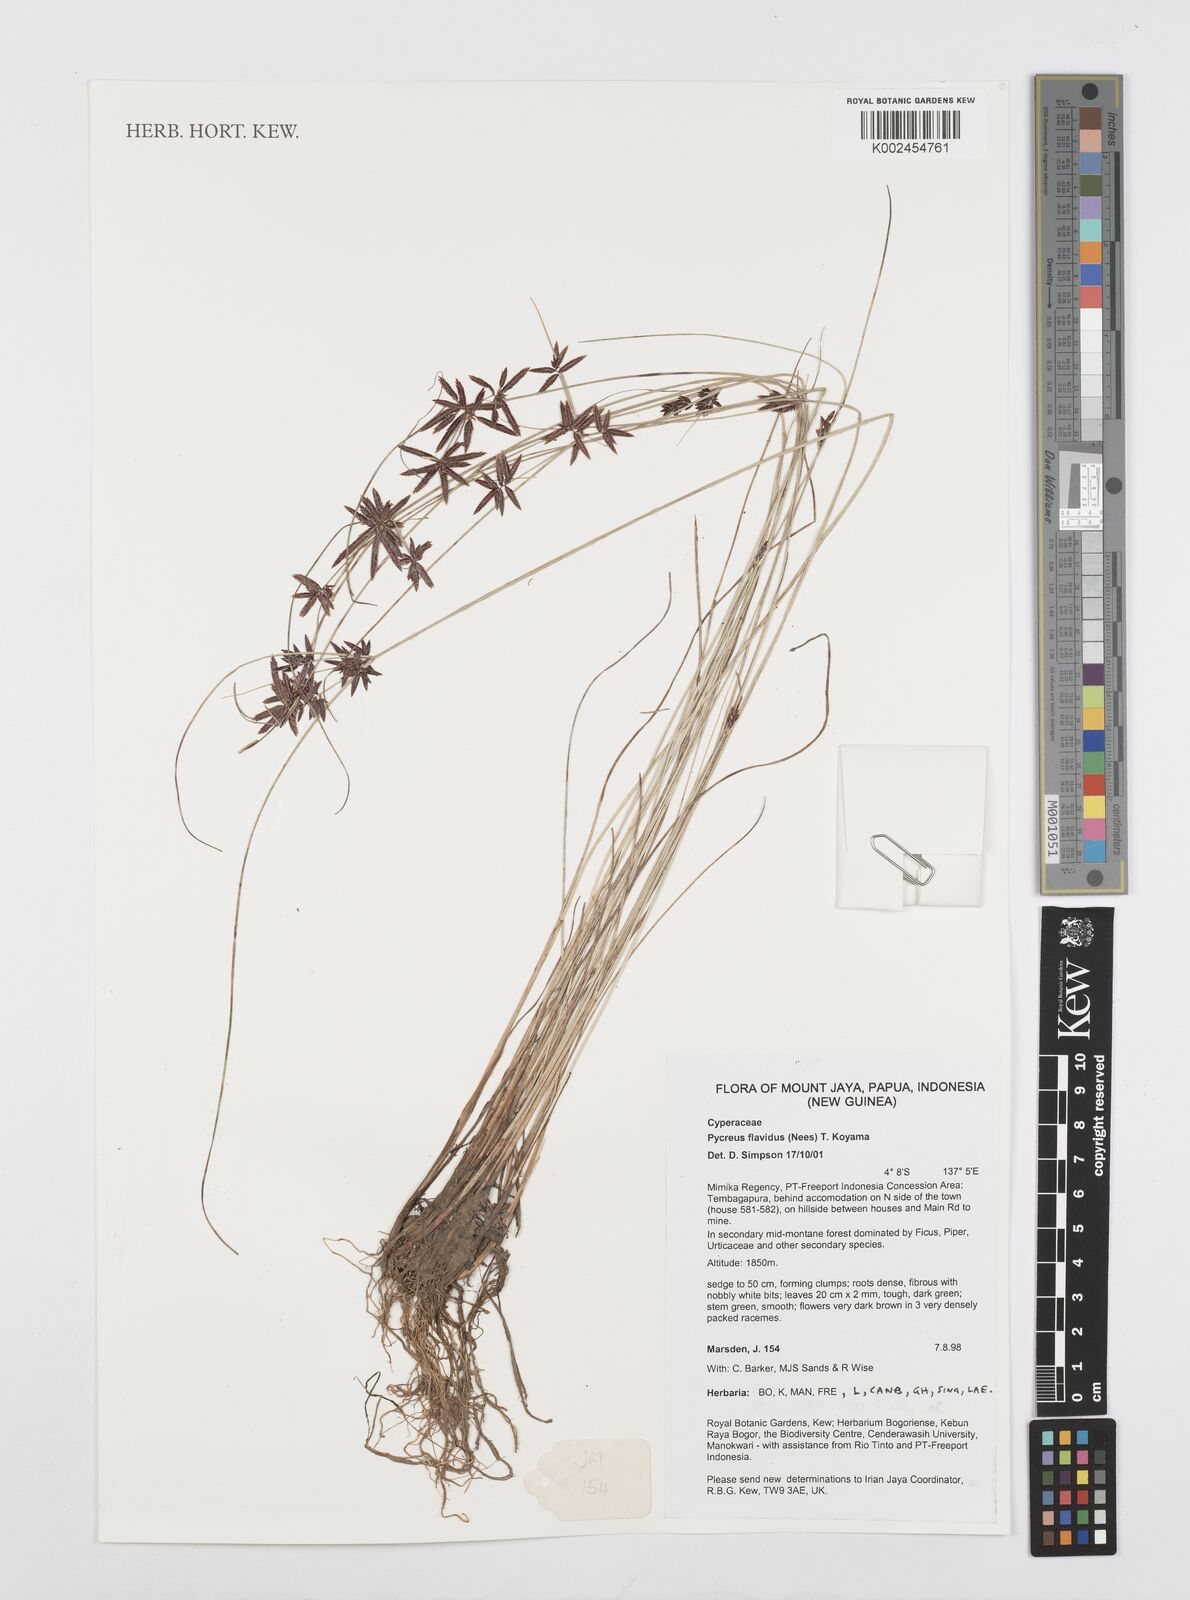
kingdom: Plantae
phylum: Tracheophyta
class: Liliopsida
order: Poales
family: Cyperaceae
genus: Cyperus
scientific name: Cyperus
